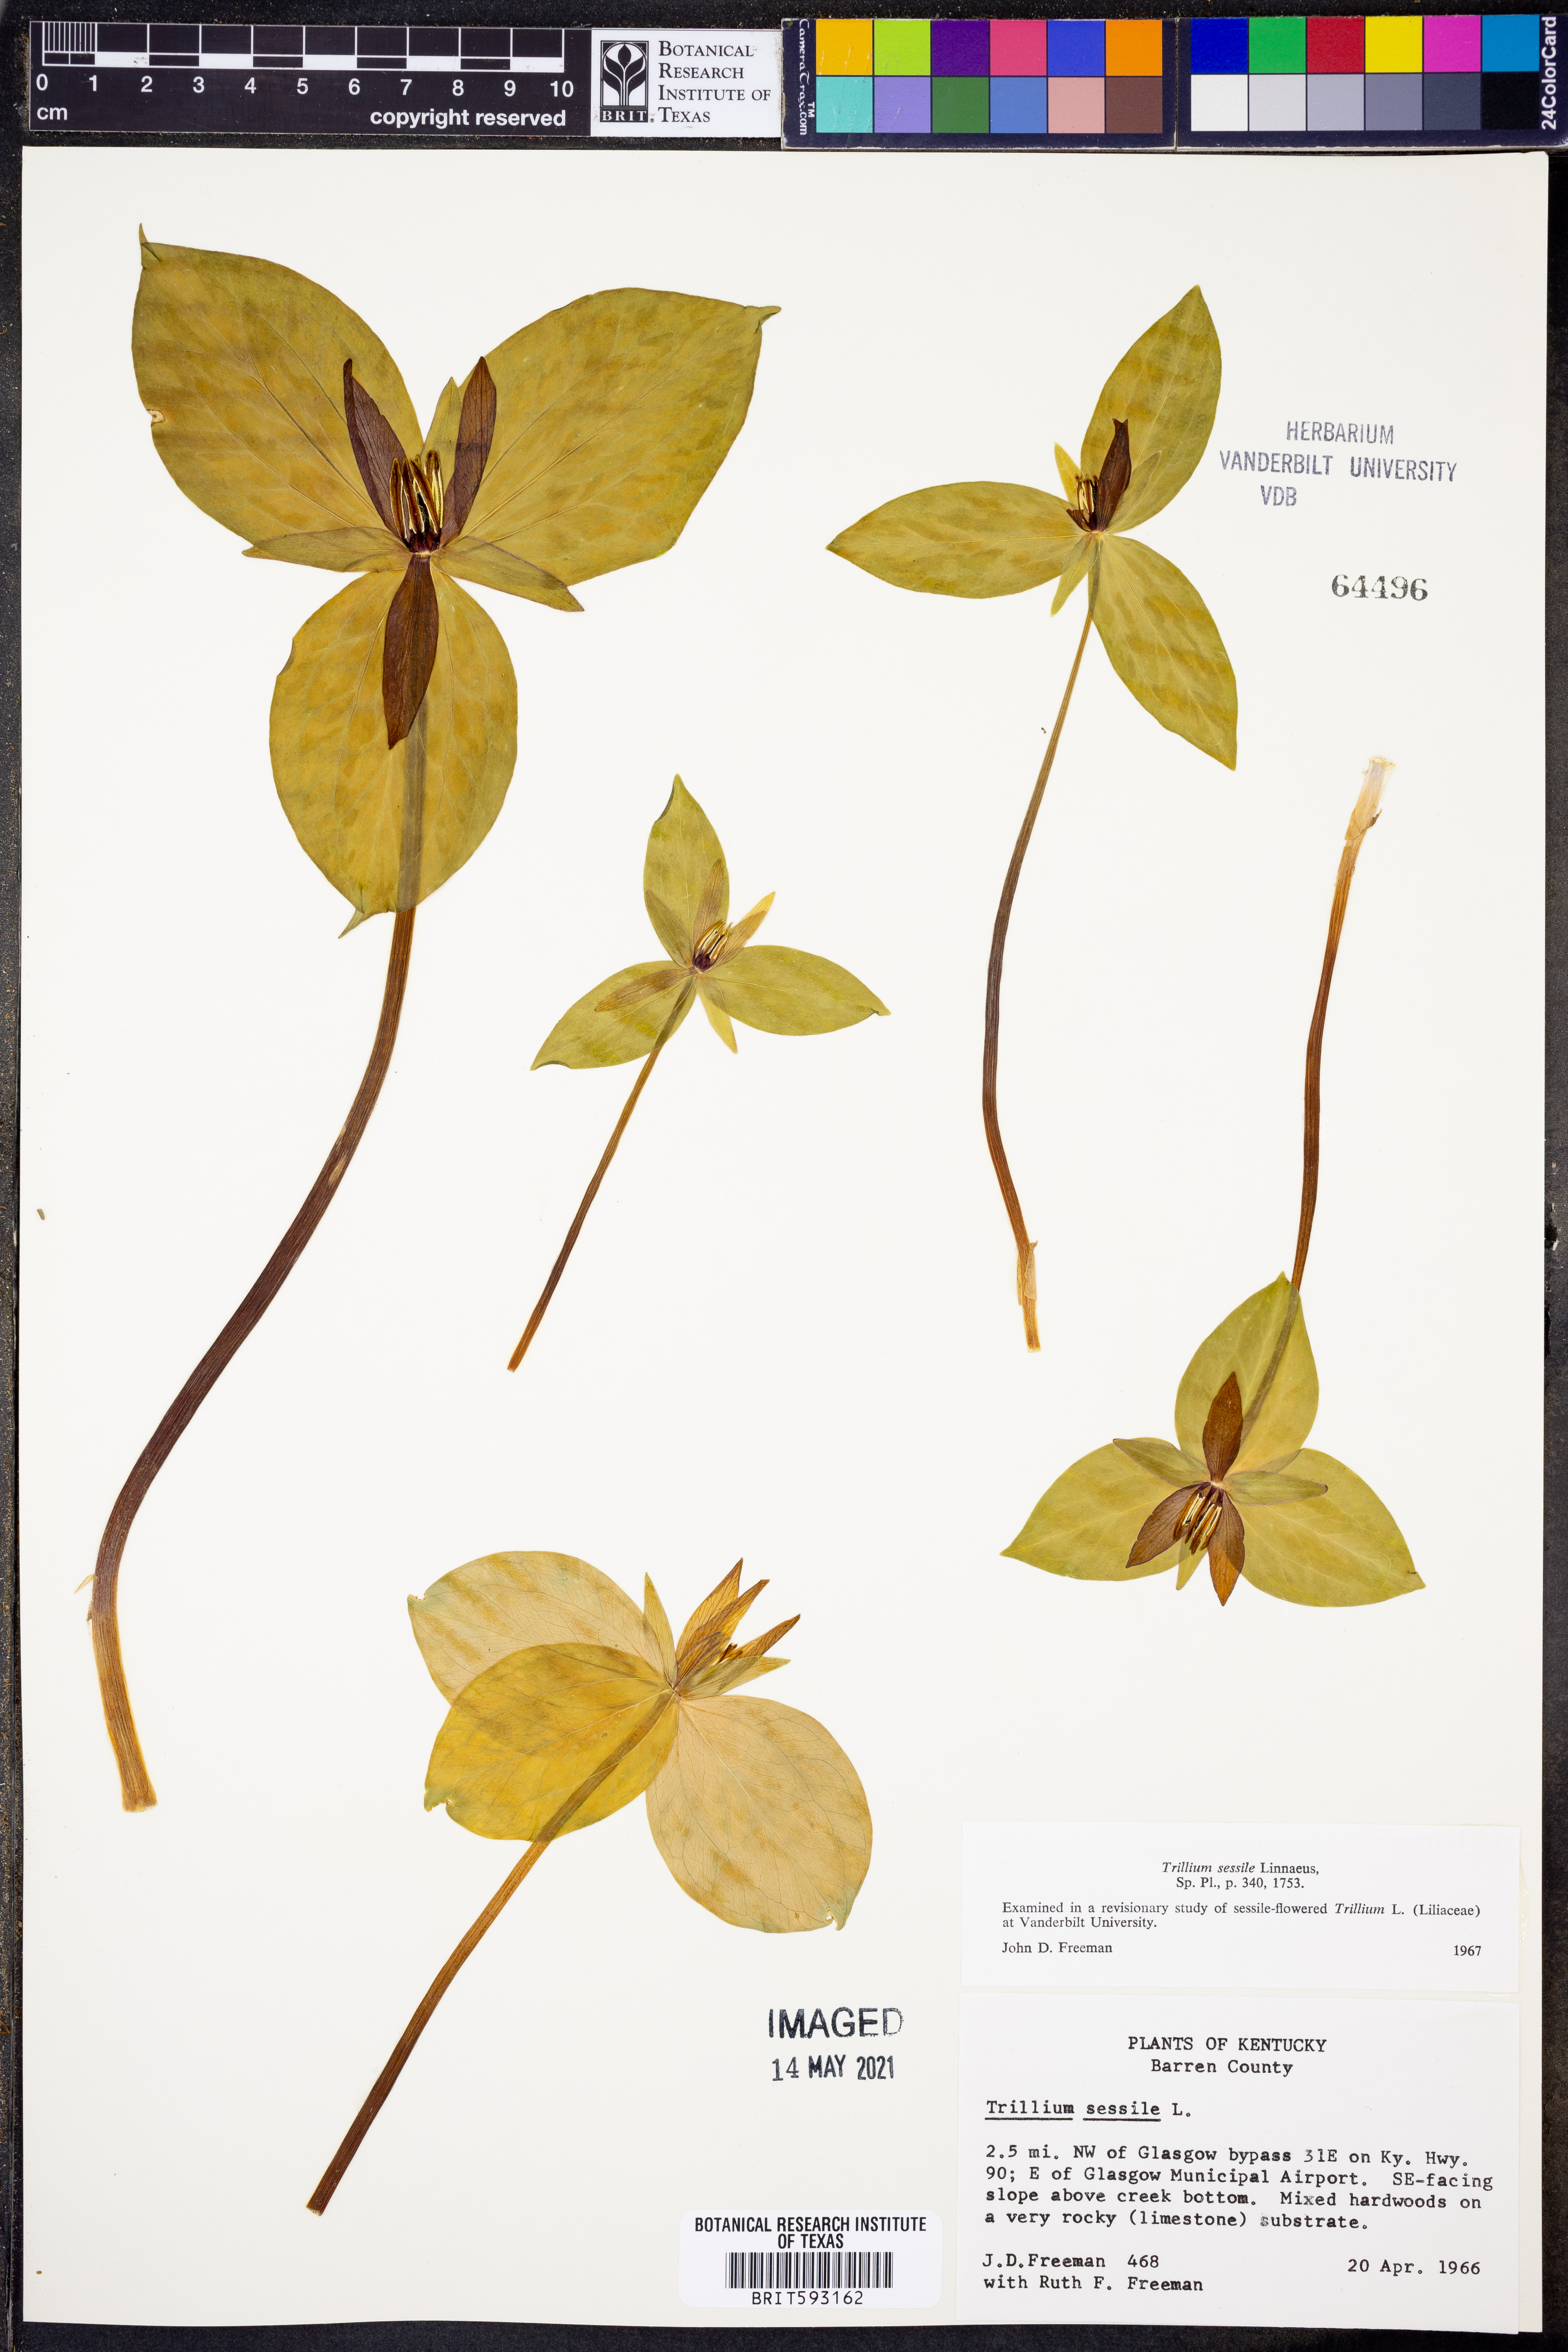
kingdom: Plantae
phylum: Tracheophyta
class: Liliopsida
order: Liliales
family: Melanthiaceae
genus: Trillium
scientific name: Trillium sessile
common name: Sessile trillium
